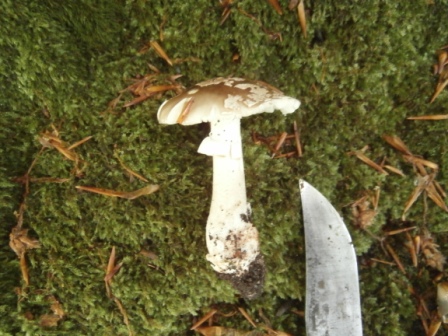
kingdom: Fungi
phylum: Basidiomycota
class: Agaricomycetes
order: Agaricales
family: Amanitaceae
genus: Amanita
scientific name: Amanita
